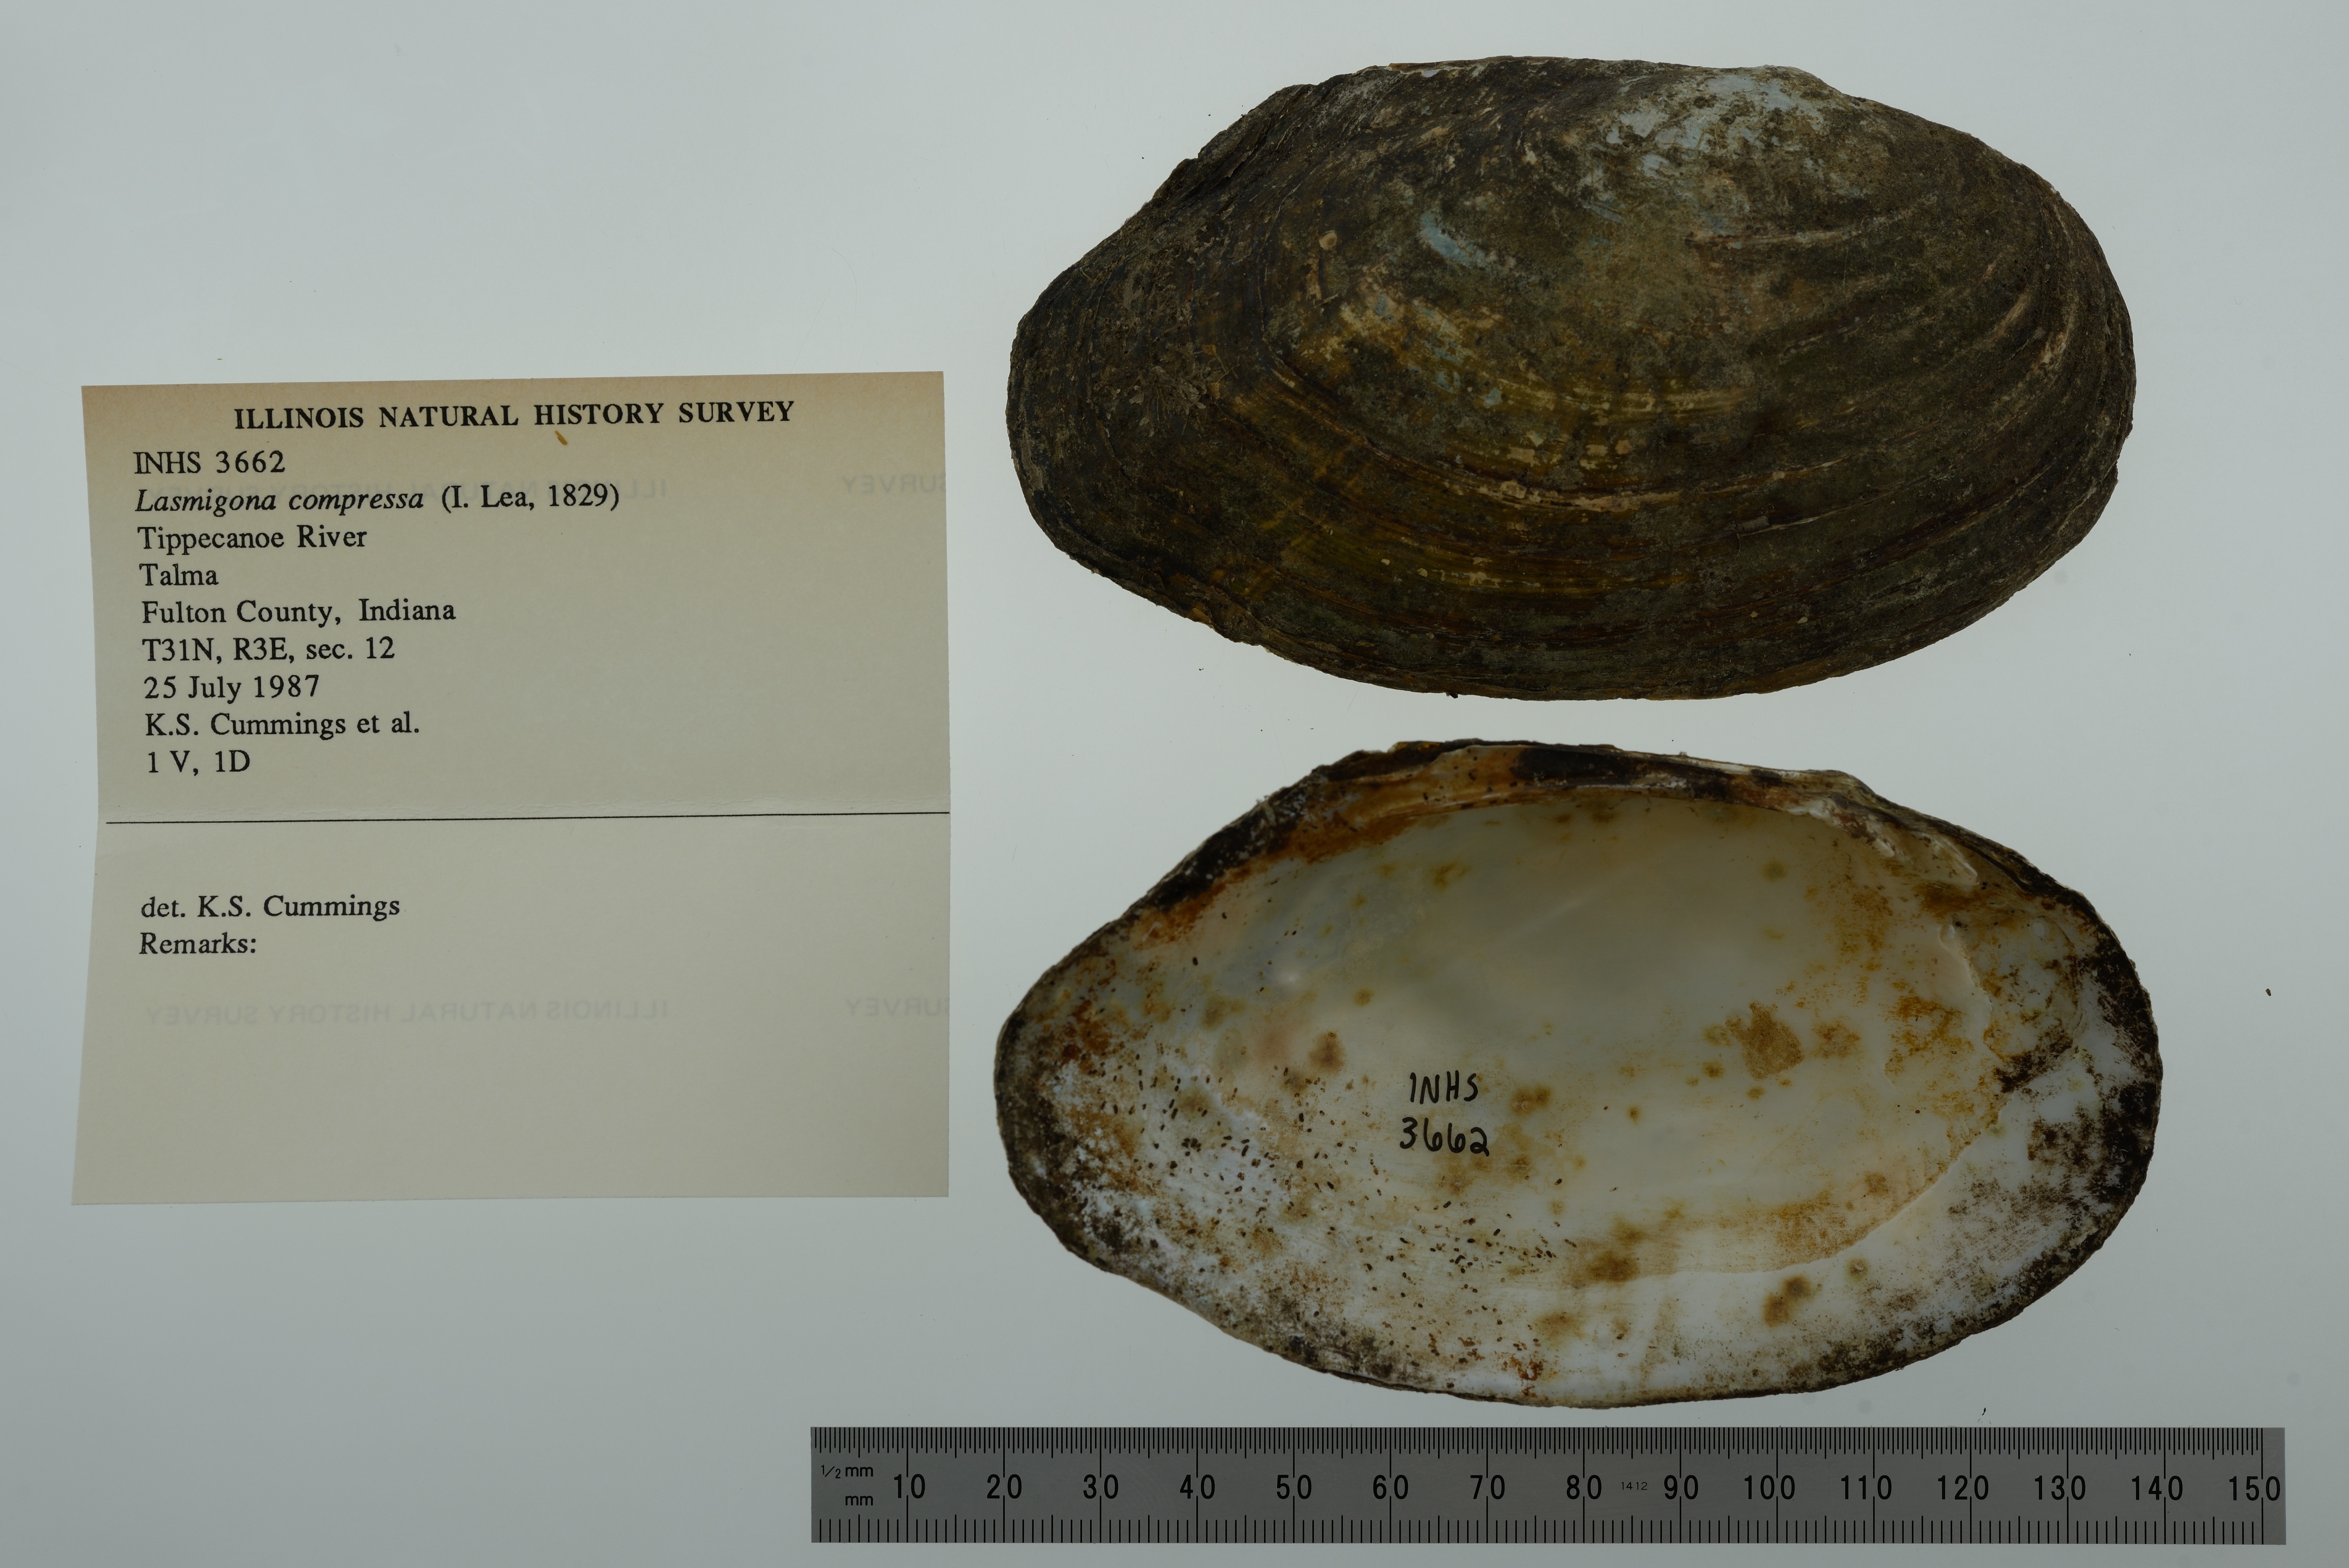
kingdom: Animalia
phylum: Mollusca
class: Bivalvia
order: Unionida
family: Unionidae
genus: Lasmigona
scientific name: Lasmigona compressa
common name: Creek heelsplitter
